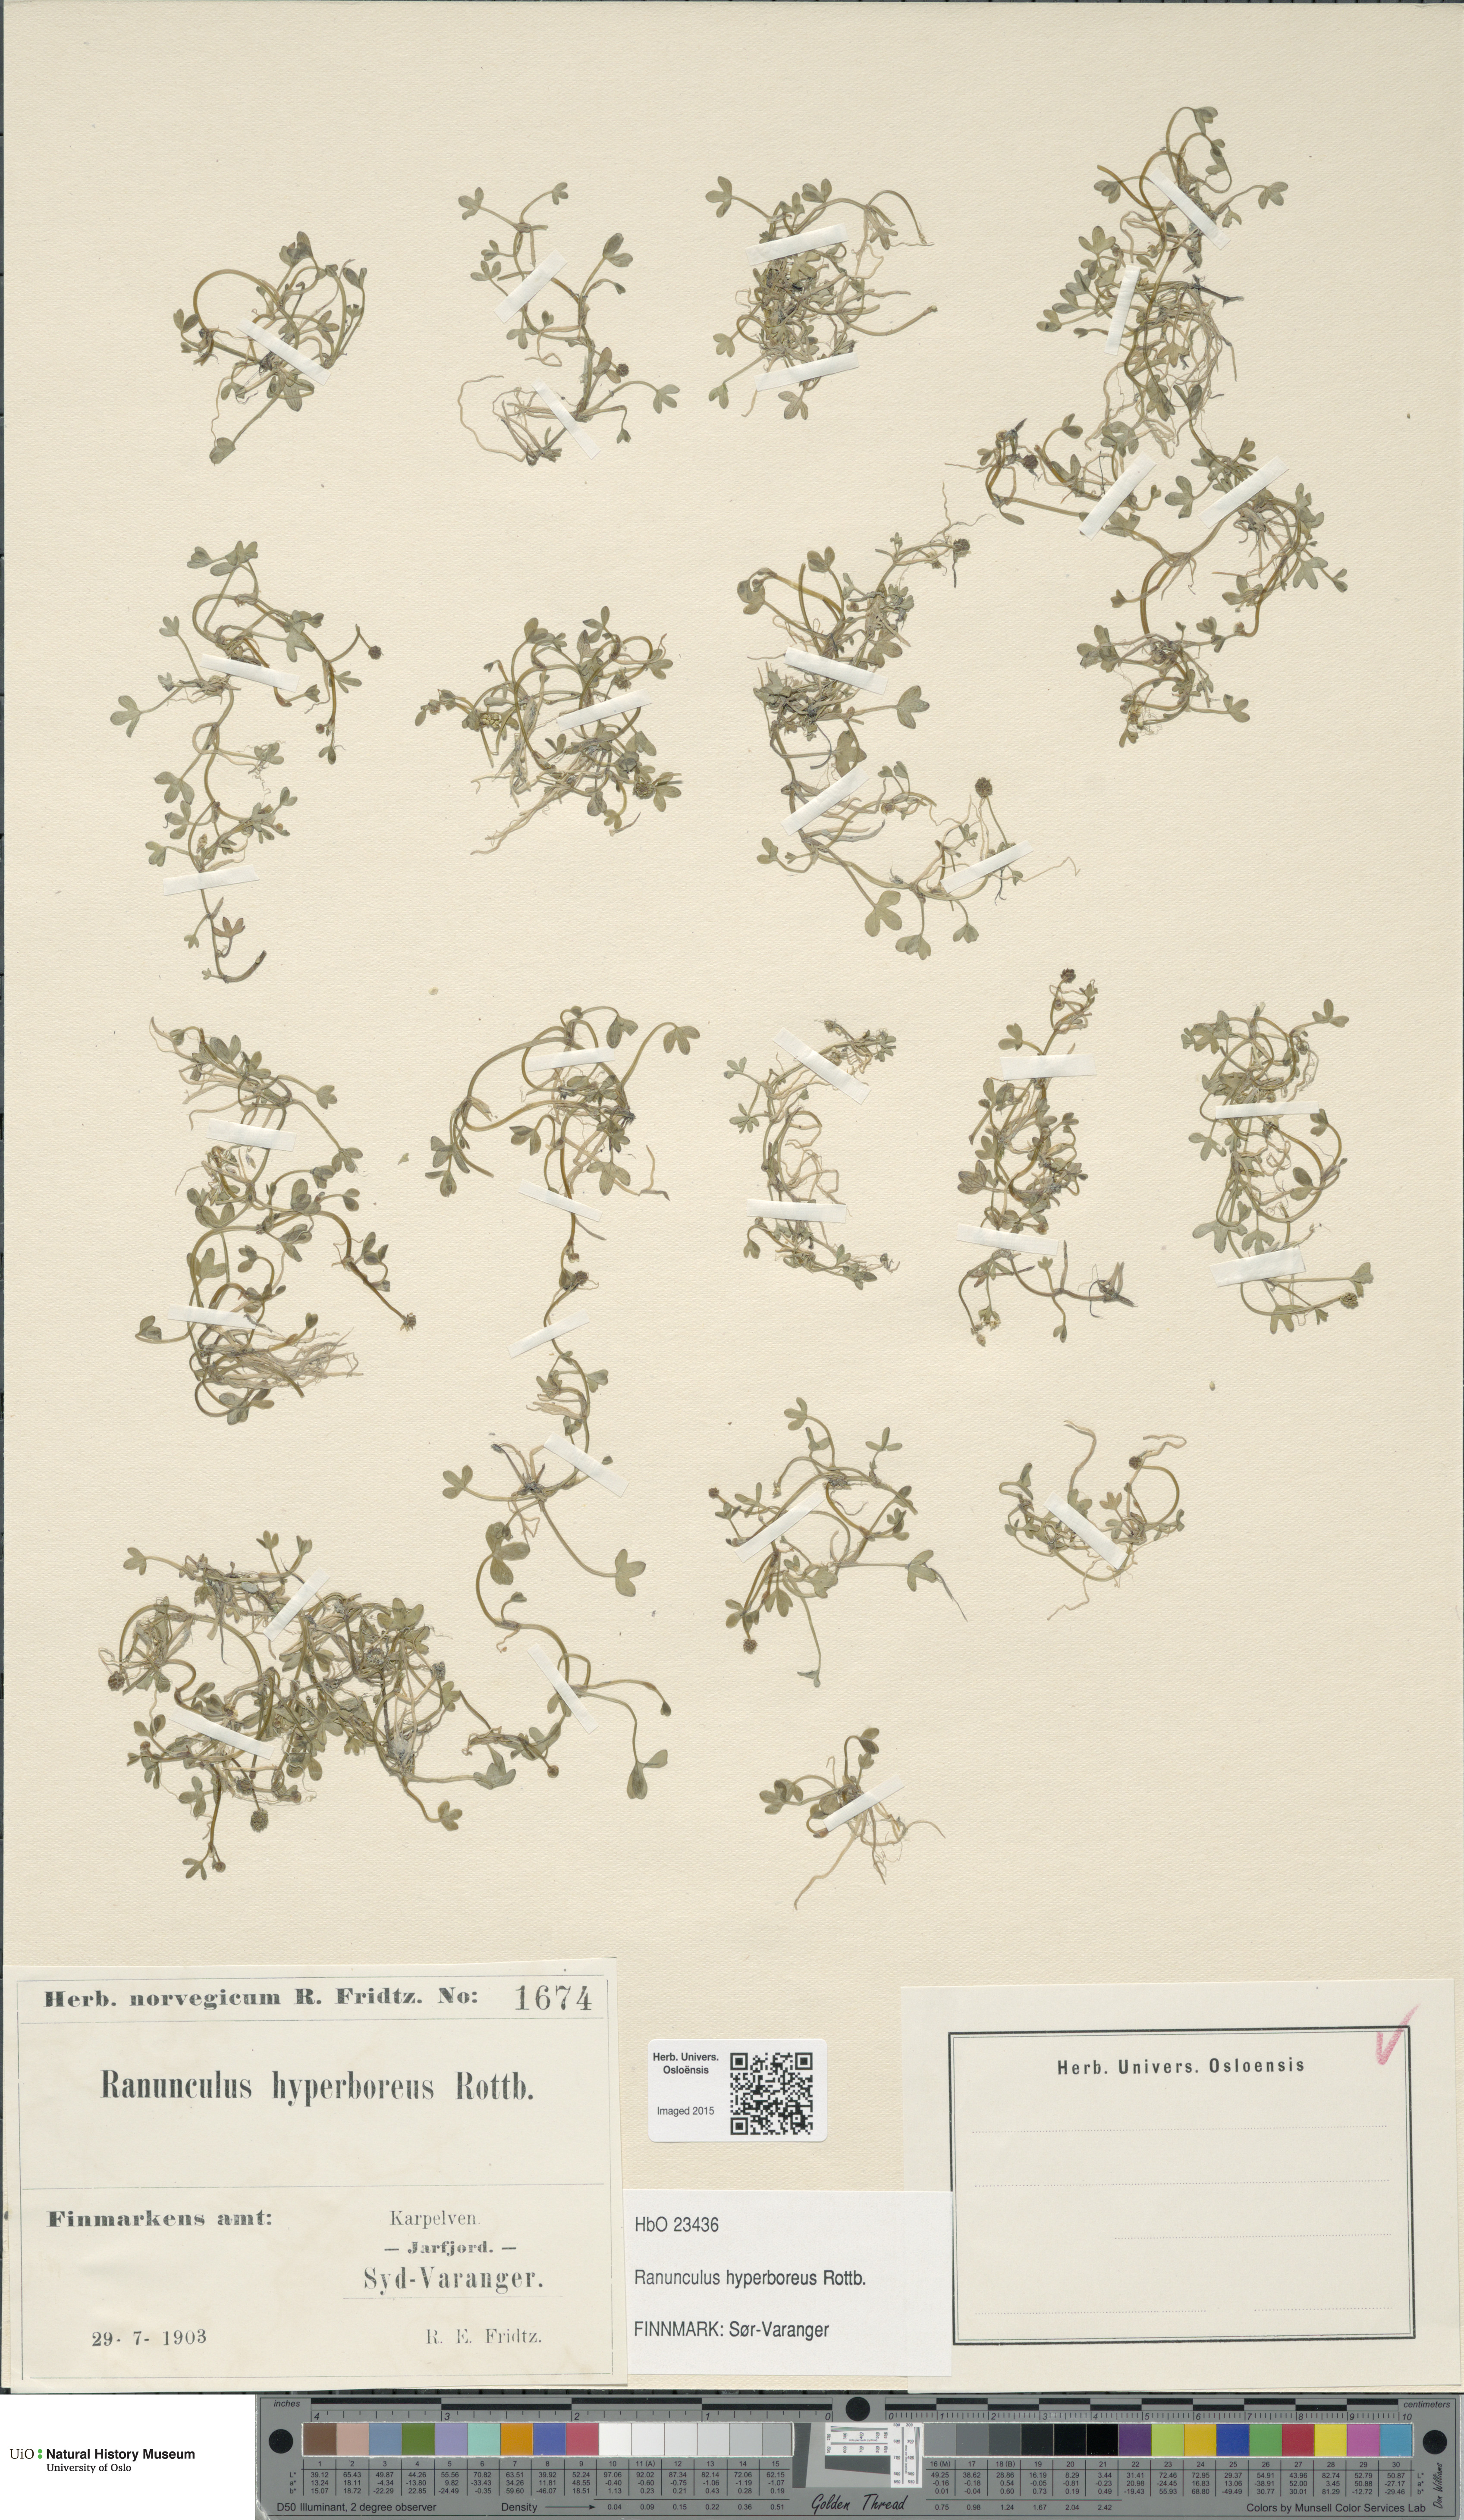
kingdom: Plantae
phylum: Tracheophyta
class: Magnoliopsida
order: Ranunculales
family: Ranunculaceae
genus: Ranunculus
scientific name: Ranunculus hyperboreus
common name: Arctic buttercup
